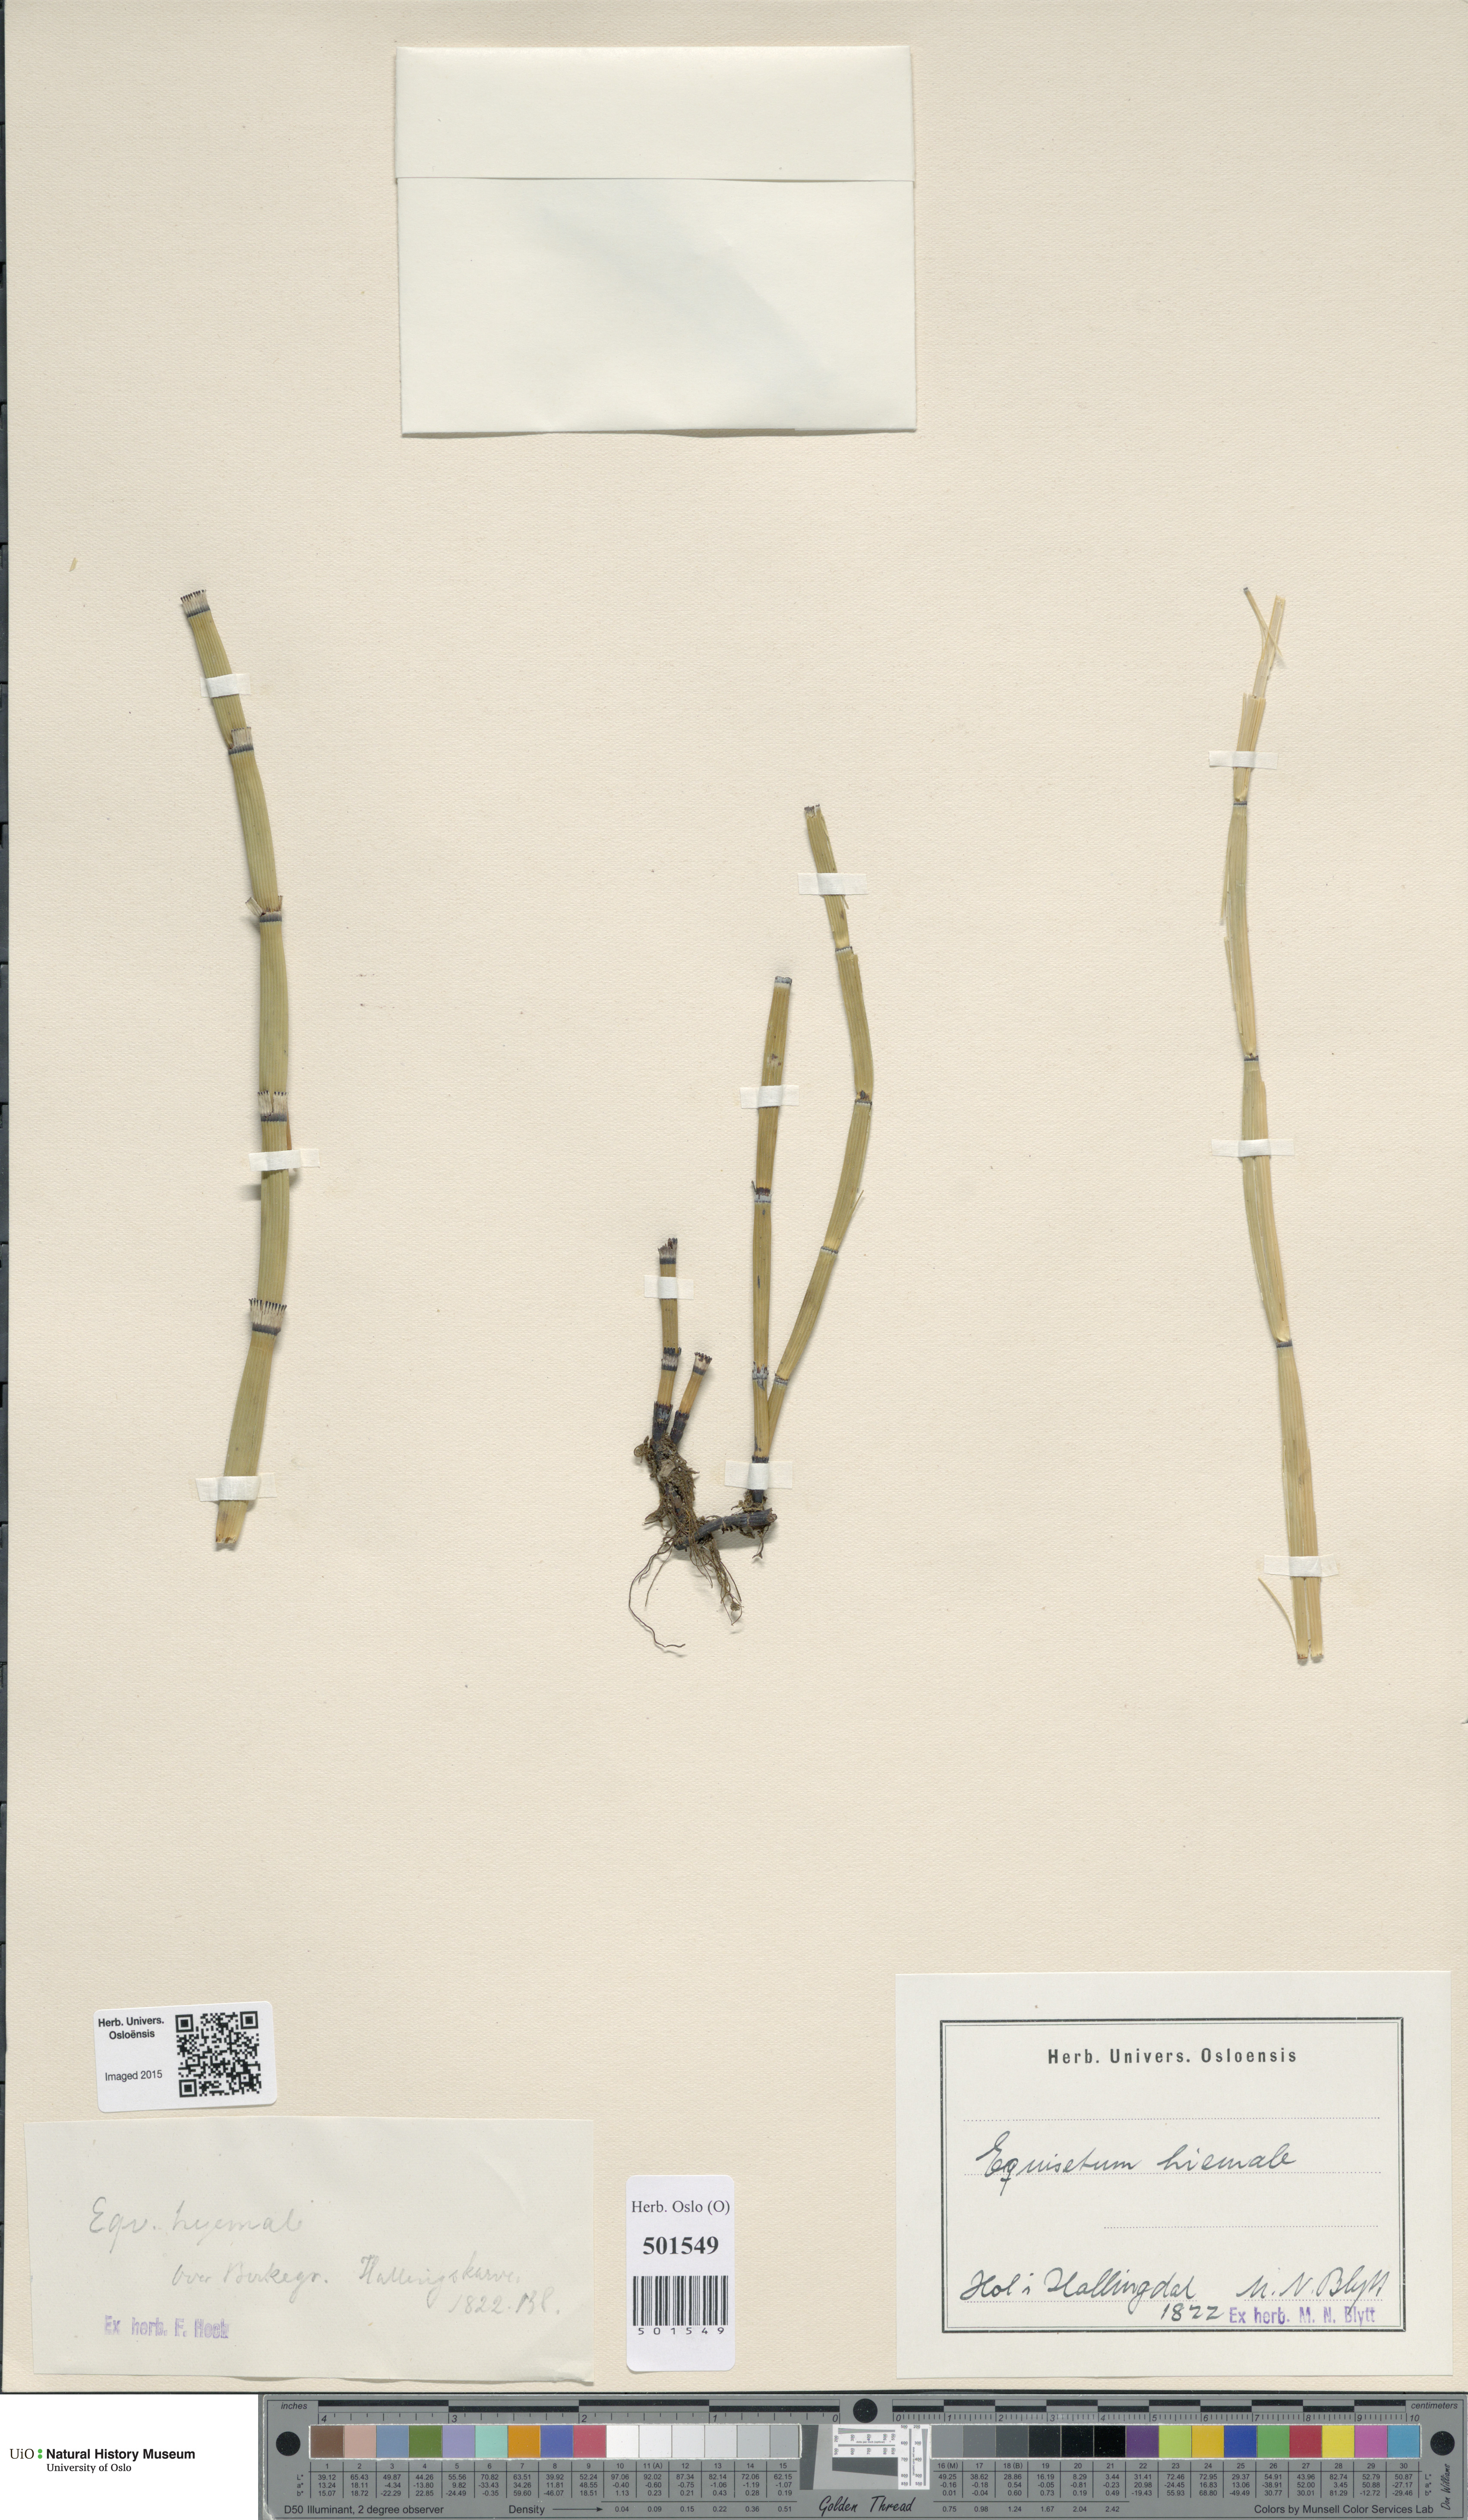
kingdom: Plantae
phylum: Tracheophyta
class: Polypodiopsida
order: Equisetales
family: Equisetaceae
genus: Equisetum
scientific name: Equisetum hyemale
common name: Rough horsetail
